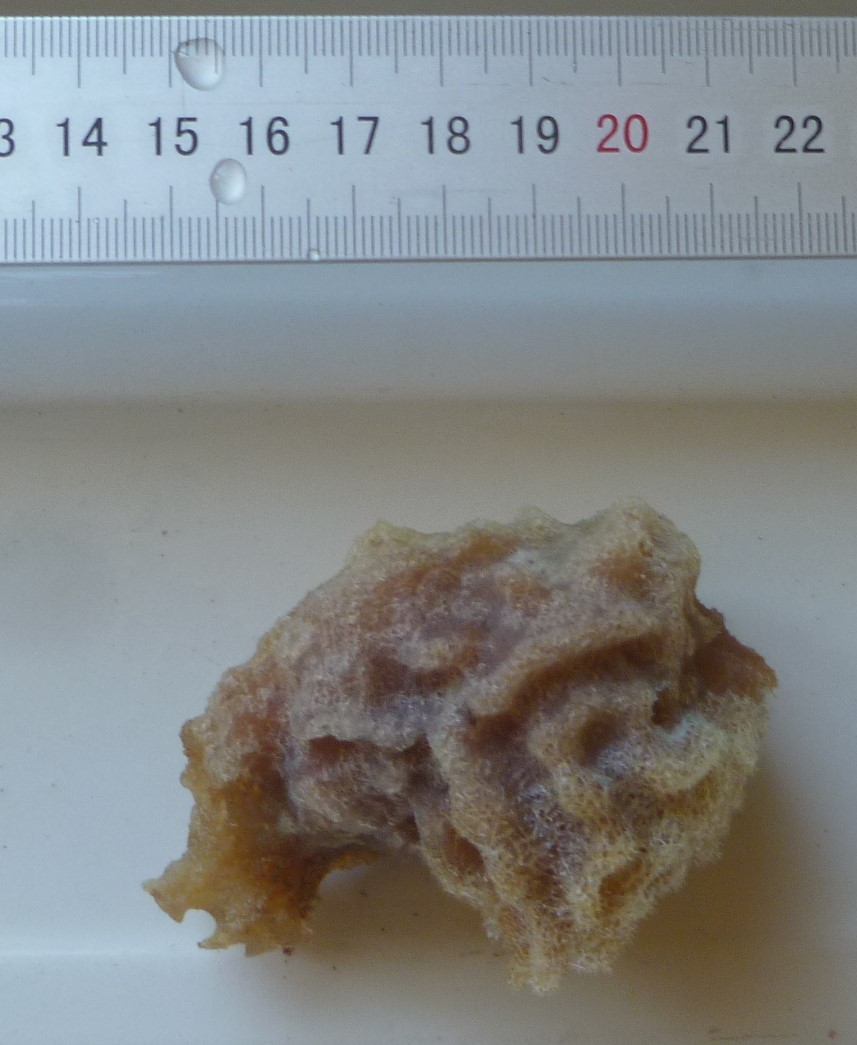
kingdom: Animalia
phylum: Porifera
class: Demospongiae
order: Haplosclerida
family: Callyspongiidae
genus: Callyspongia
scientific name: Callyspongia plicifera
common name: Azure vase sponge
